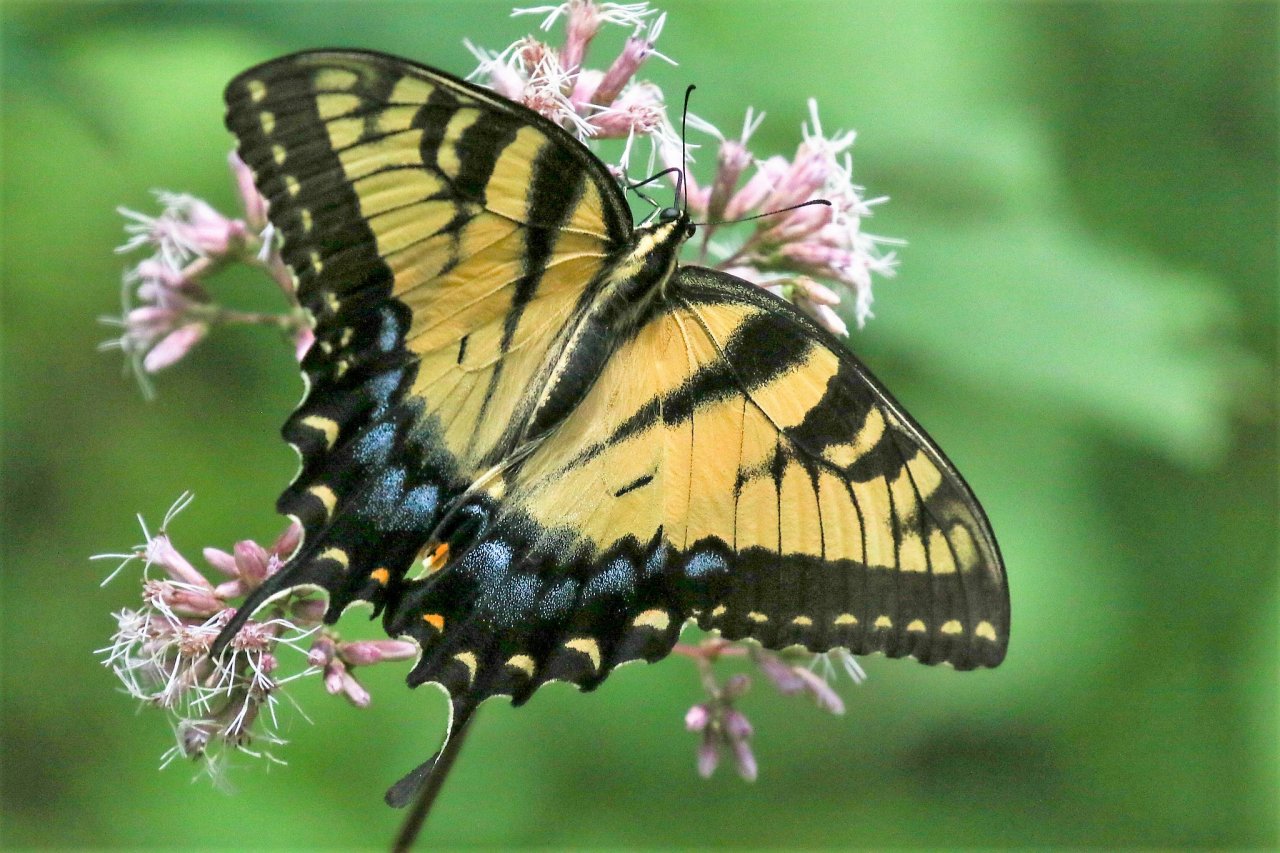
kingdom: Animalia
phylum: Arthropoda
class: Insecta
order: Lepidoptera
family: Papilionidae
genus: Pterourus
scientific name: Pterourus glaucus
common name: Eastern Tiger Swallowtail
